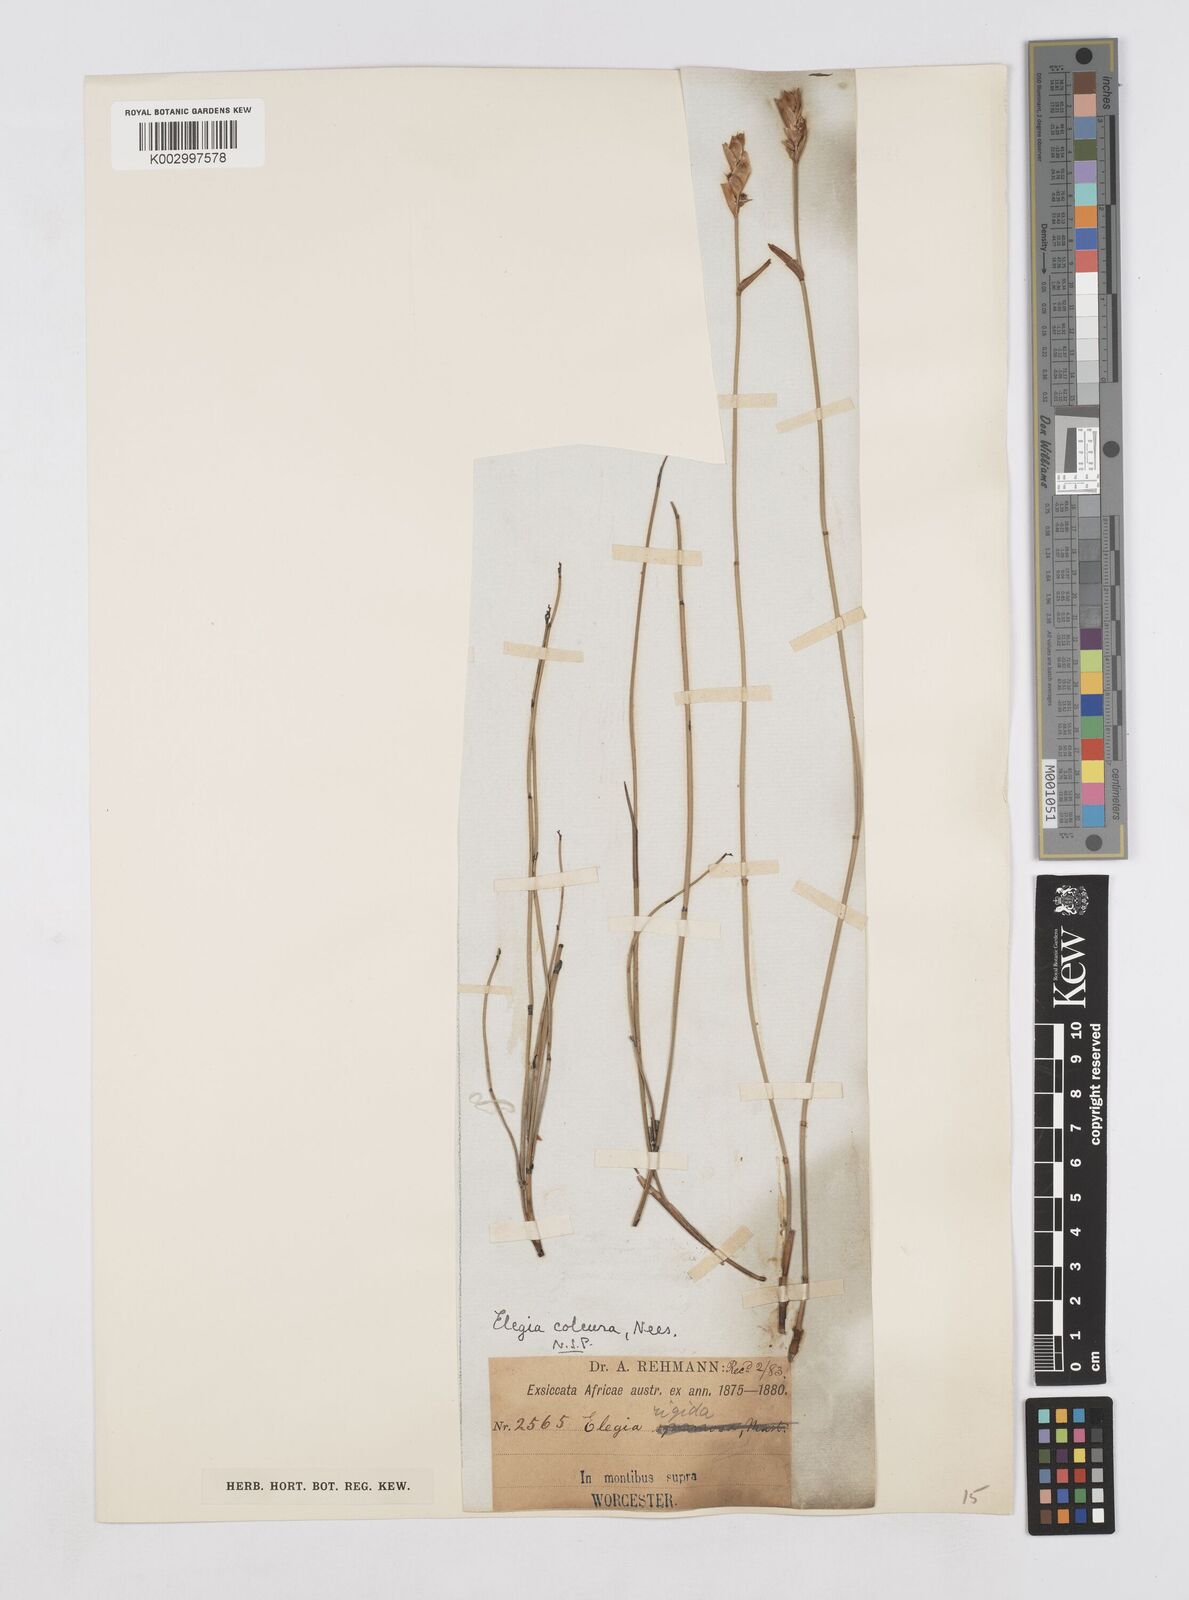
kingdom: Plantae
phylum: Tracheophyta
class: Liliopsida
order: Poales
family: Restionaceae
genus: Elegia
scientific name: Elegia coleura
